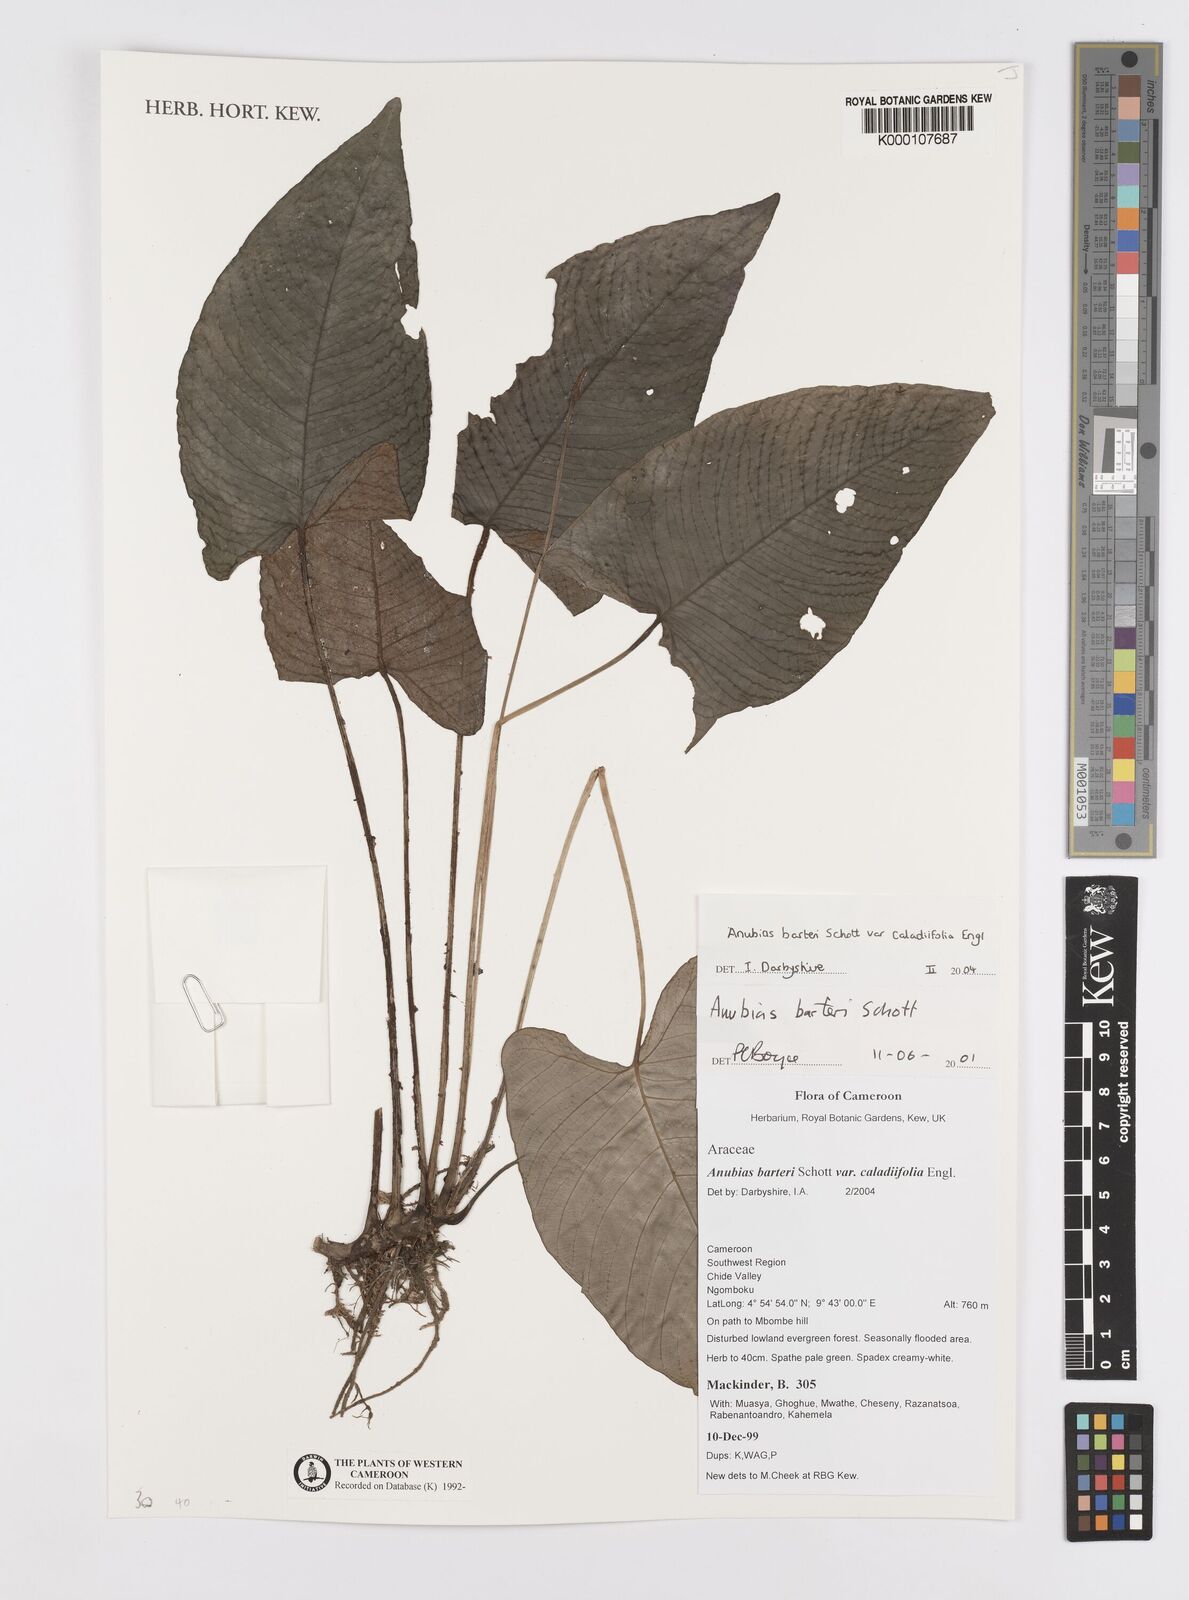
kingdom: Plantae
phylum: Tracheophyta
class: Liliopsida
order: Alismatales
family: Araceae
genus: Anubias
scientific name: Anubias barteri
